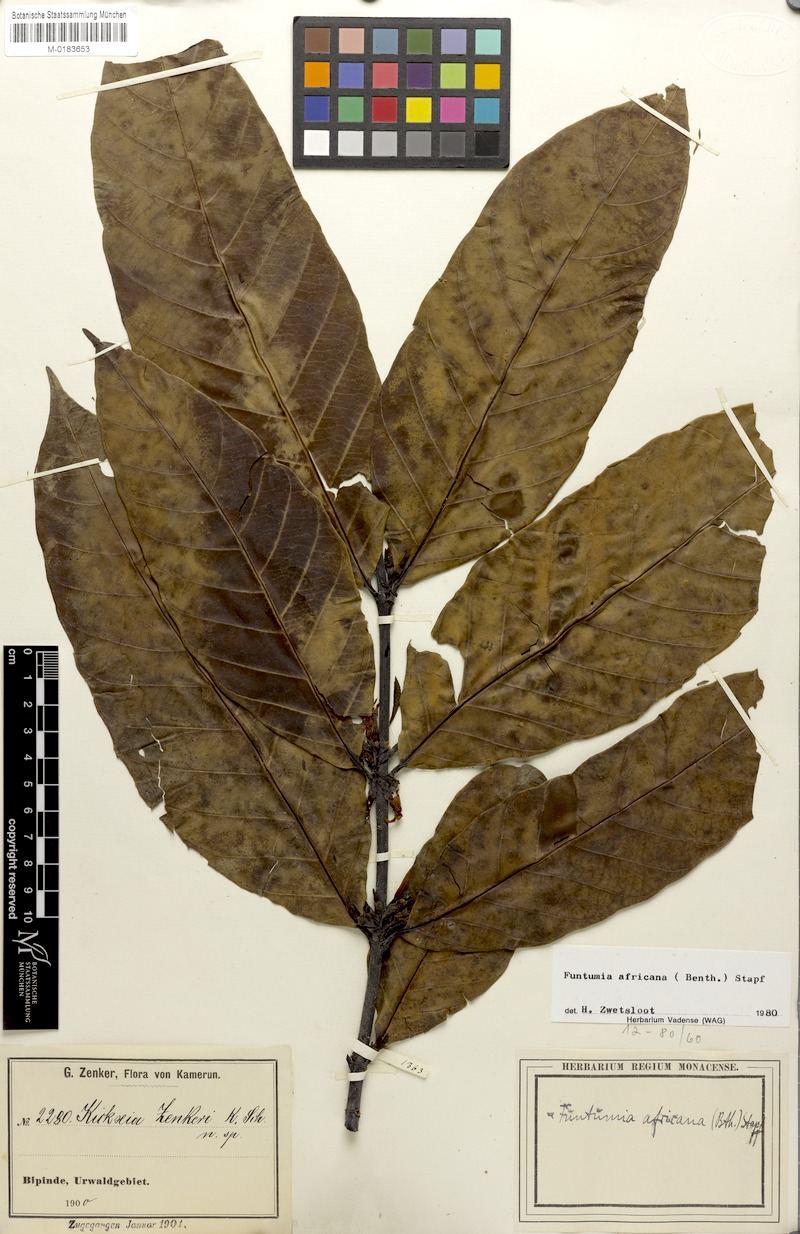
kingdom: Plantae
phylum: Tracheophyta
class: Magnoliopsida
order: Gentianales
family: Apocynaceae
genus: Funtumia
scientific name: Funtumia africana
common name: Lagos-rubber
